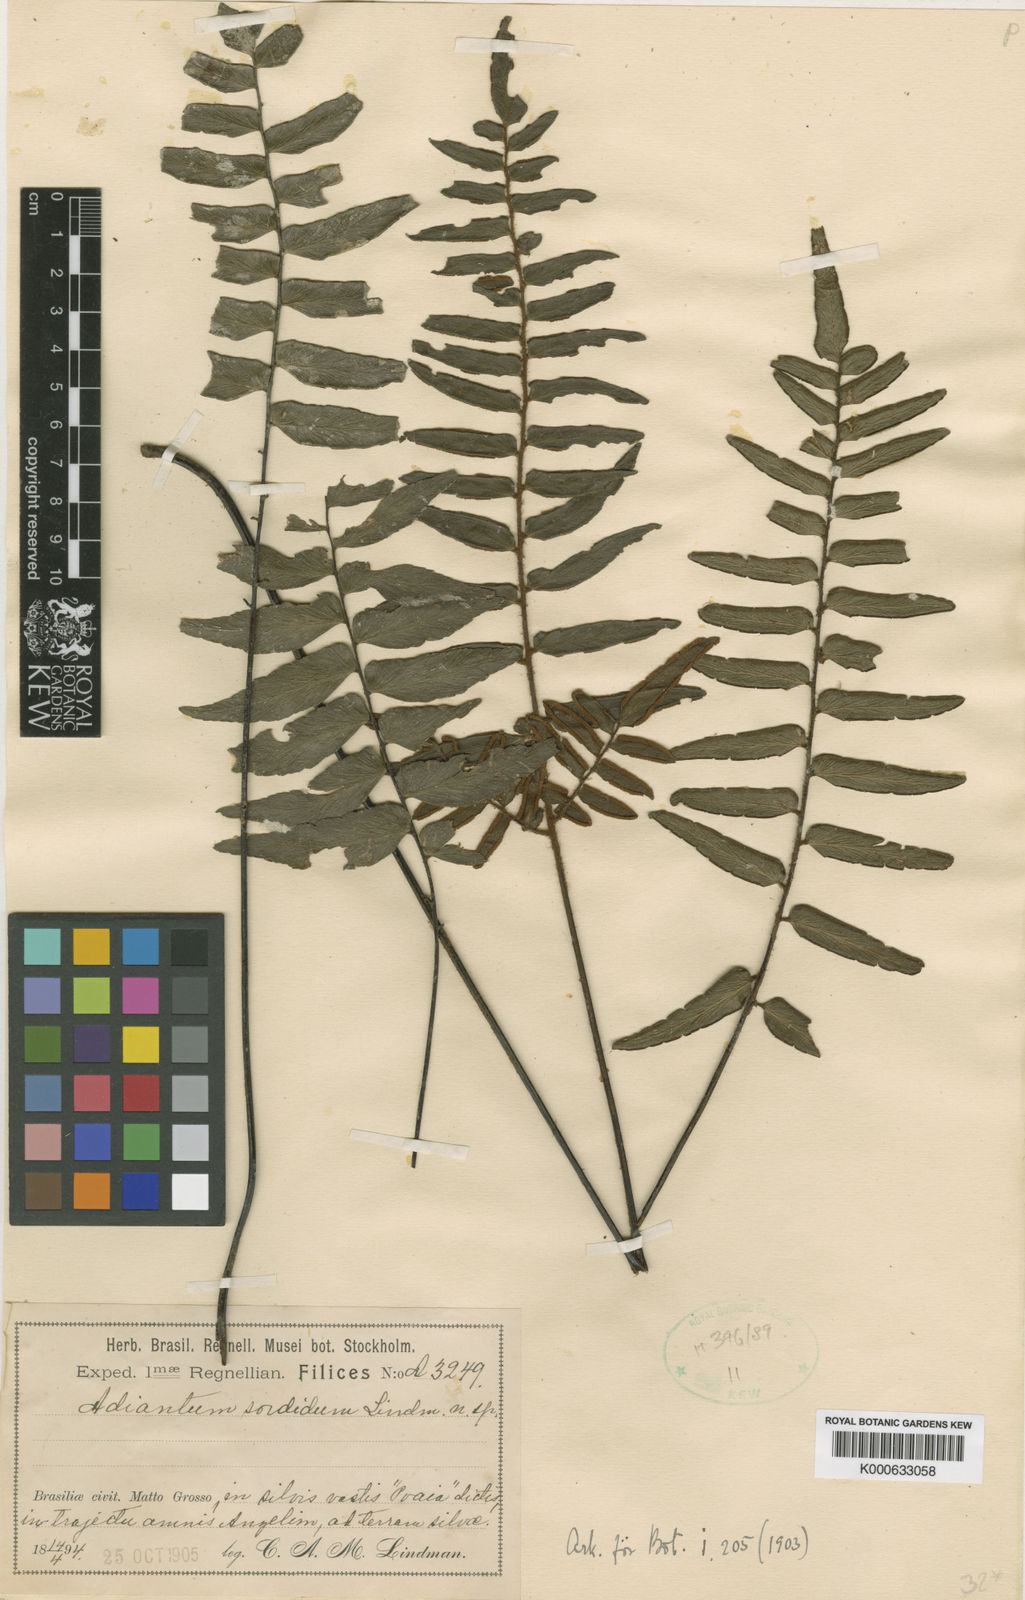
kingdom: Plantae
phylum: Tracheophyta
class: Polypodiopsida
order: Polypodiales
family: Pteridaceae
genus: Adiantum
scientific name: Adiantum latifolium
